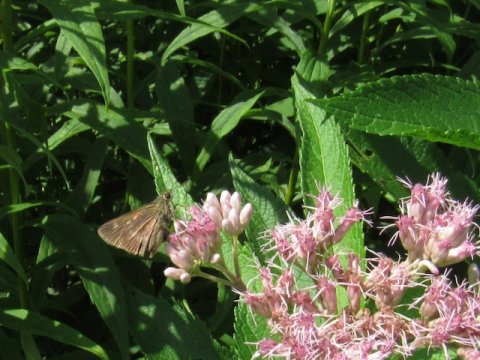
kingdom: Animalia
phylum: Arthropoda
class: Insecta
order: Lepidoptera
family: Hesperiidae
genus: Polites
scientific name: Polites egeremet
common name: Northern Broken-Dash
